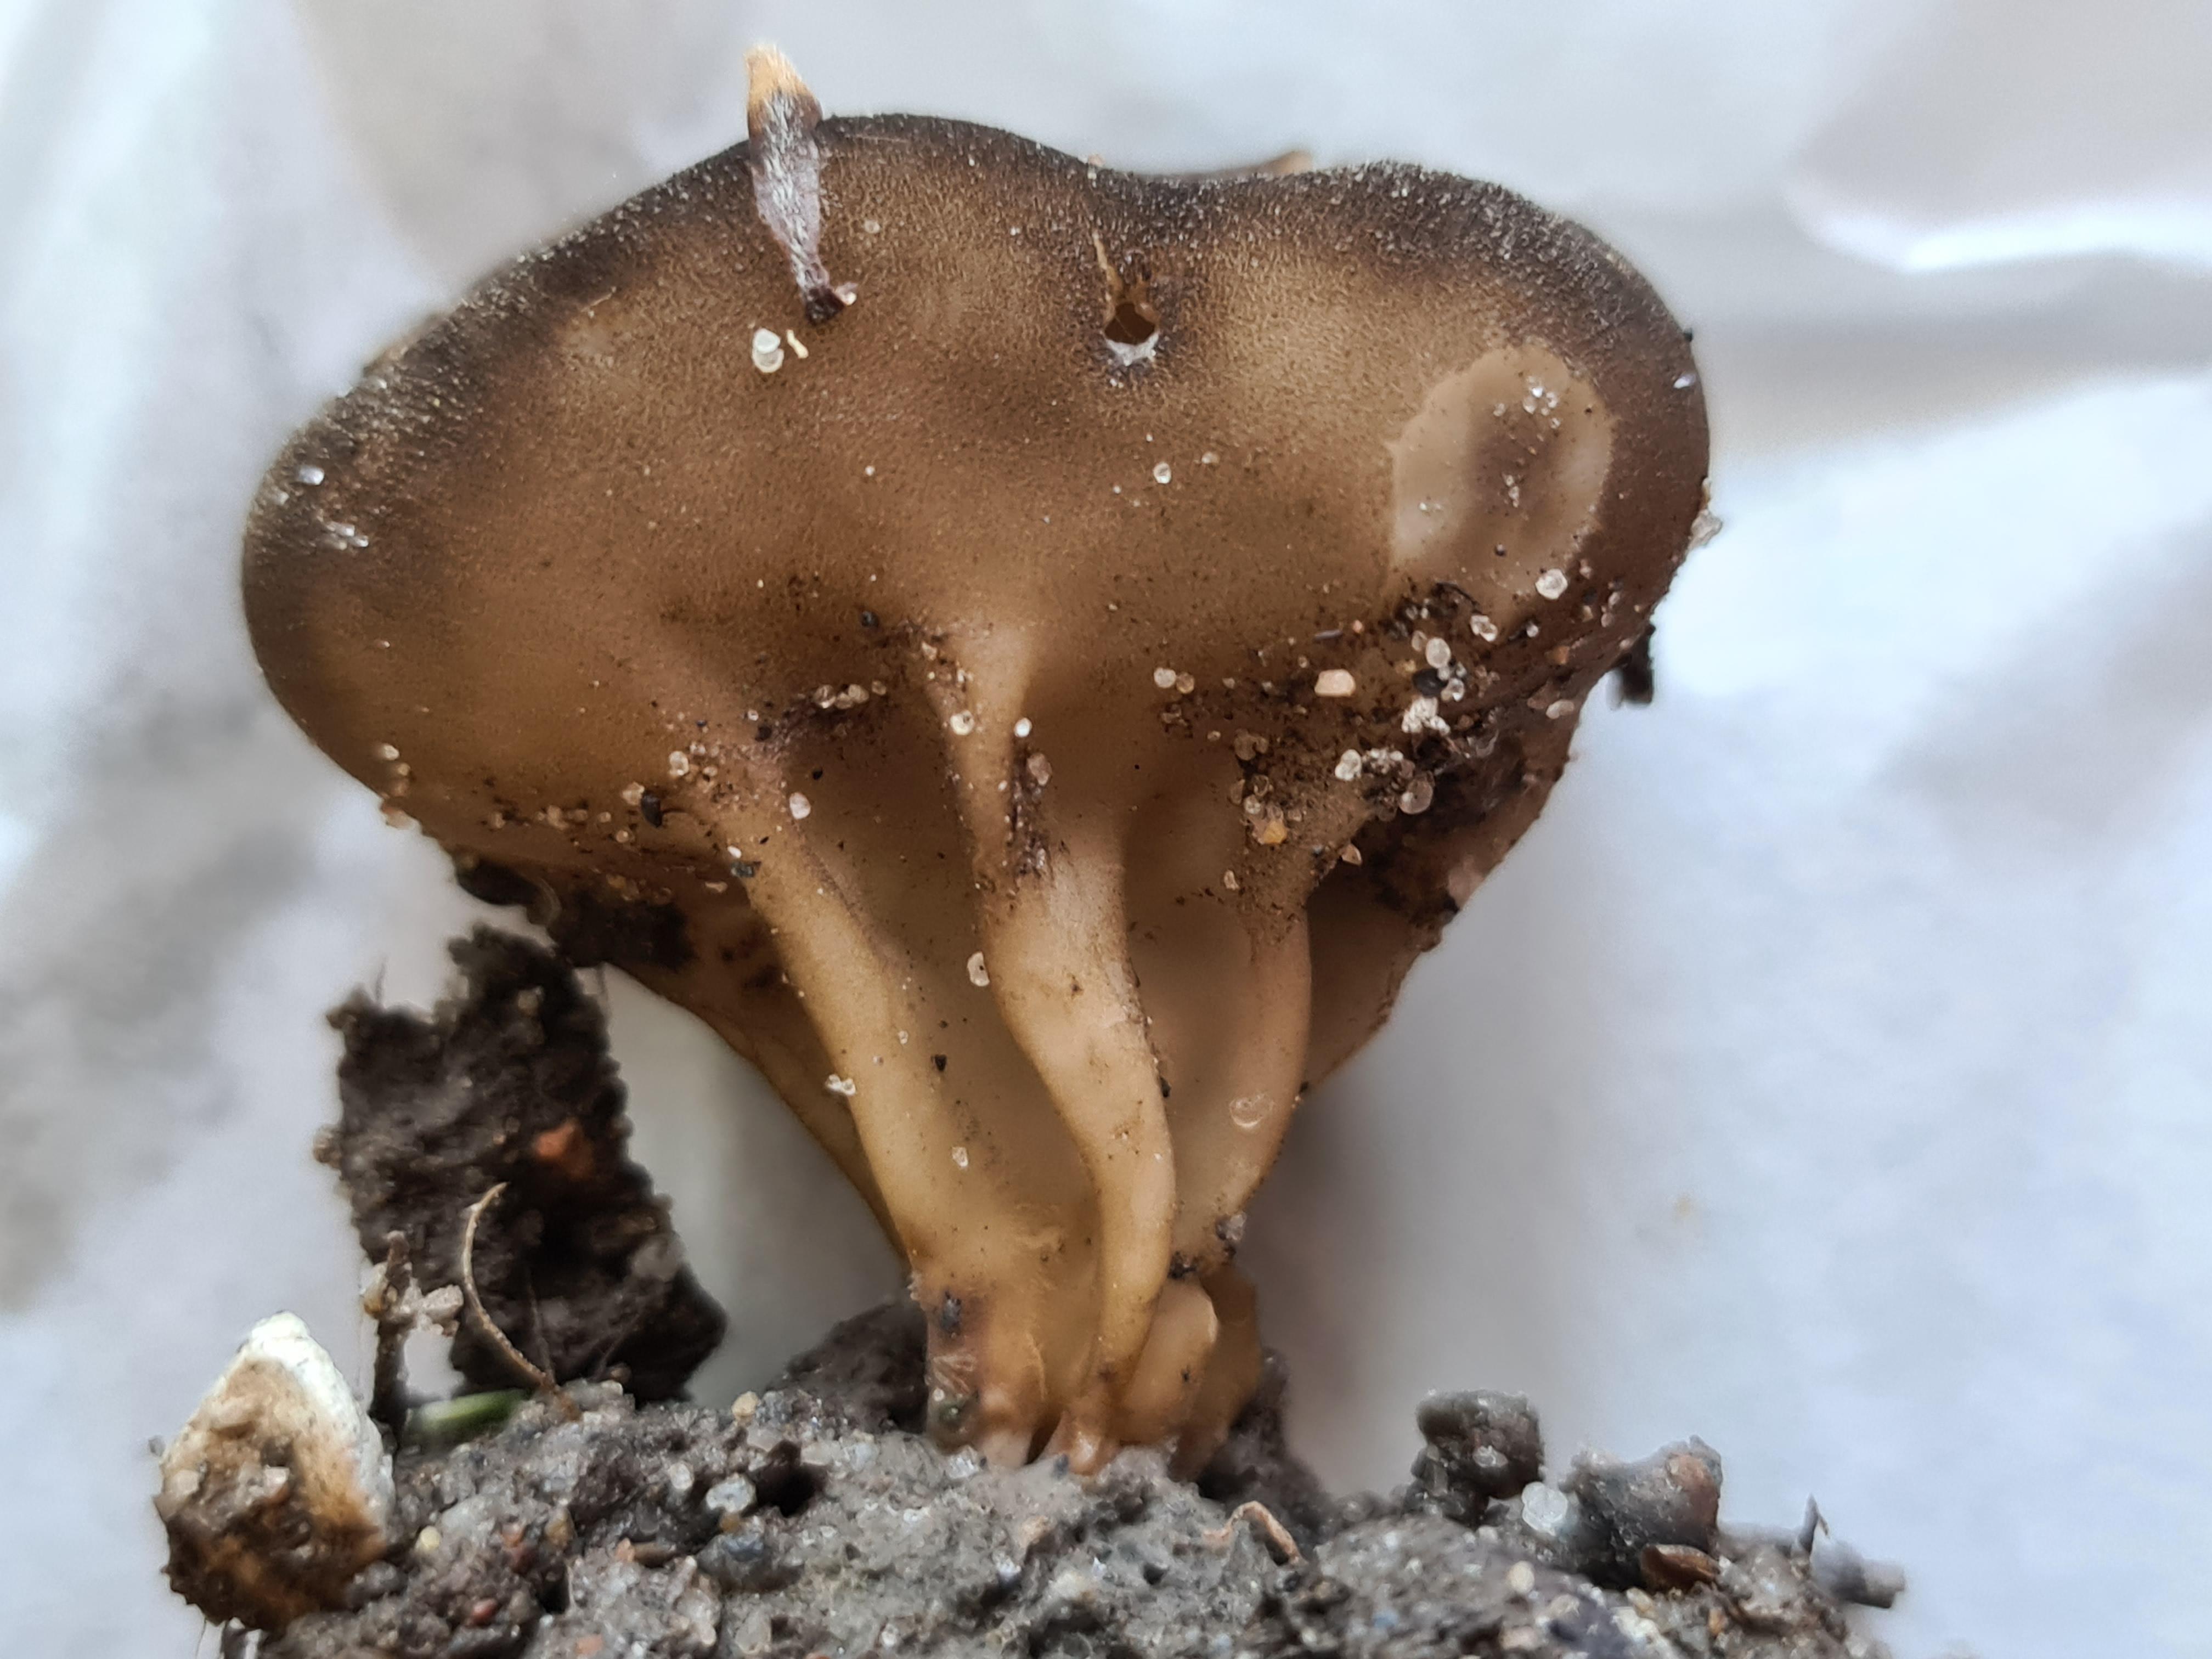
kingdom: Fungi
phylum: Ascomycota
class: Pezizomycetes
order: Pezizales
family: Helvellaceae
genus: Helvella
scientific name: Helvella acetabulum
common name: pokal-foldhat
